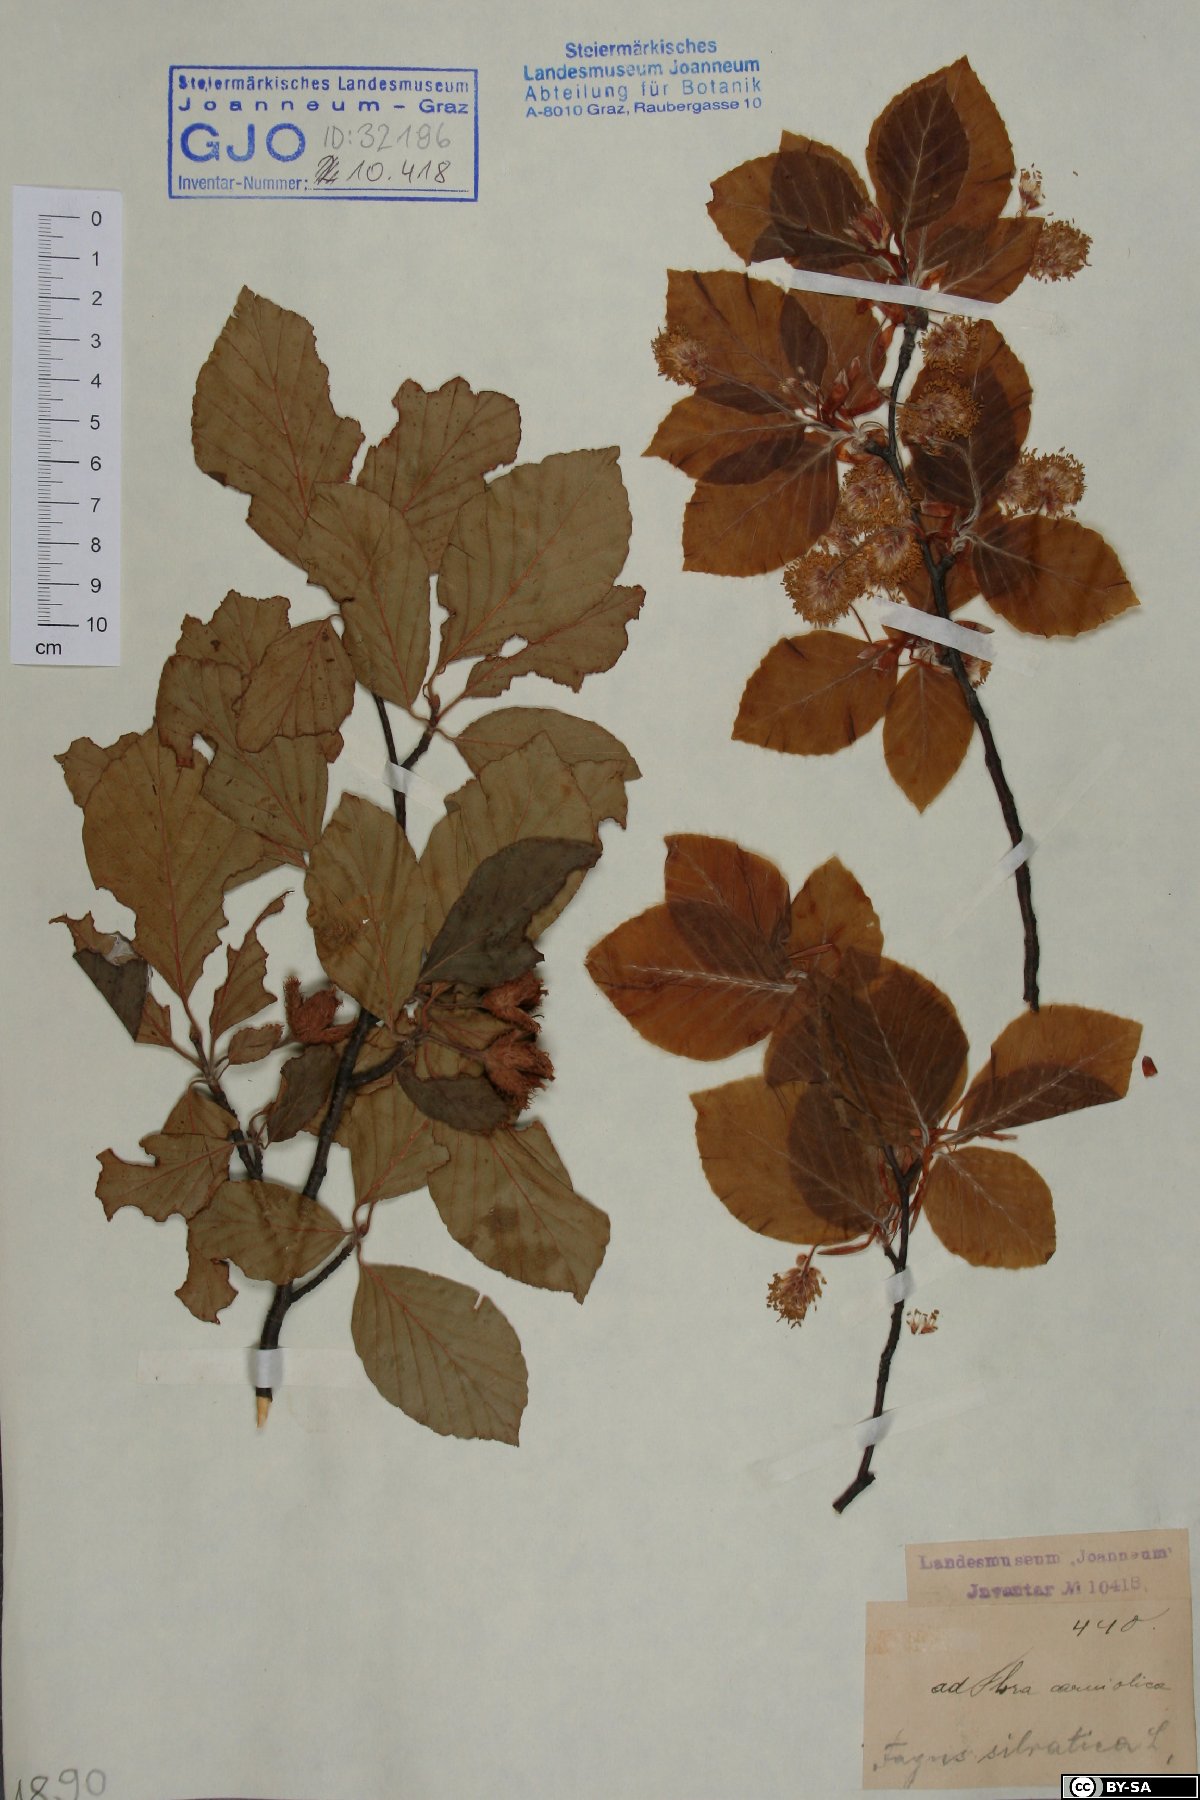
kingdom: Plantae
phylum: Tracheophyta
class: Magnoliopsida
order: Fagales
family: Fagaceae
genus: Fagus
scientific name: Fagus sylvatica
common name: Beech
